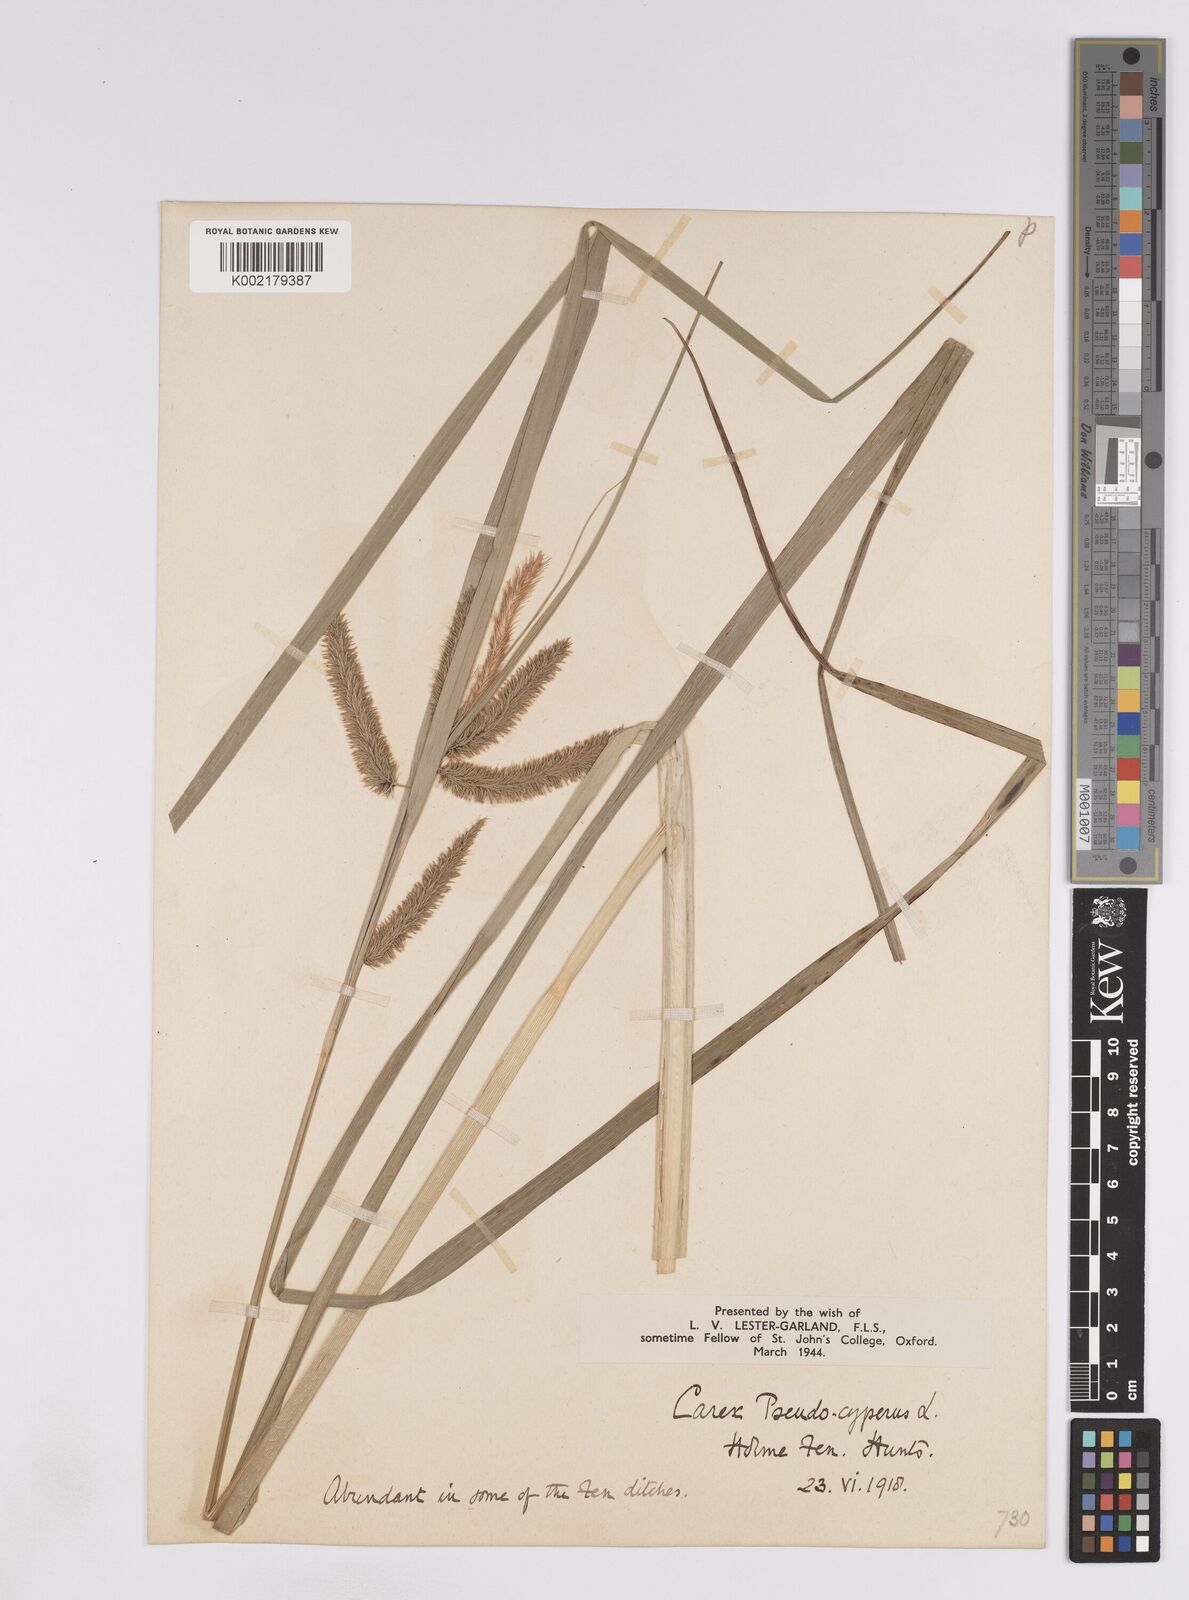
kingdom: Plantae
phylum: Tracheophyta
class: Liliopsida
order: Poales
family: Cyperaceae
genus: Carex
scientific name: Carex pseudocyperus
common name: Cyperus sedge
